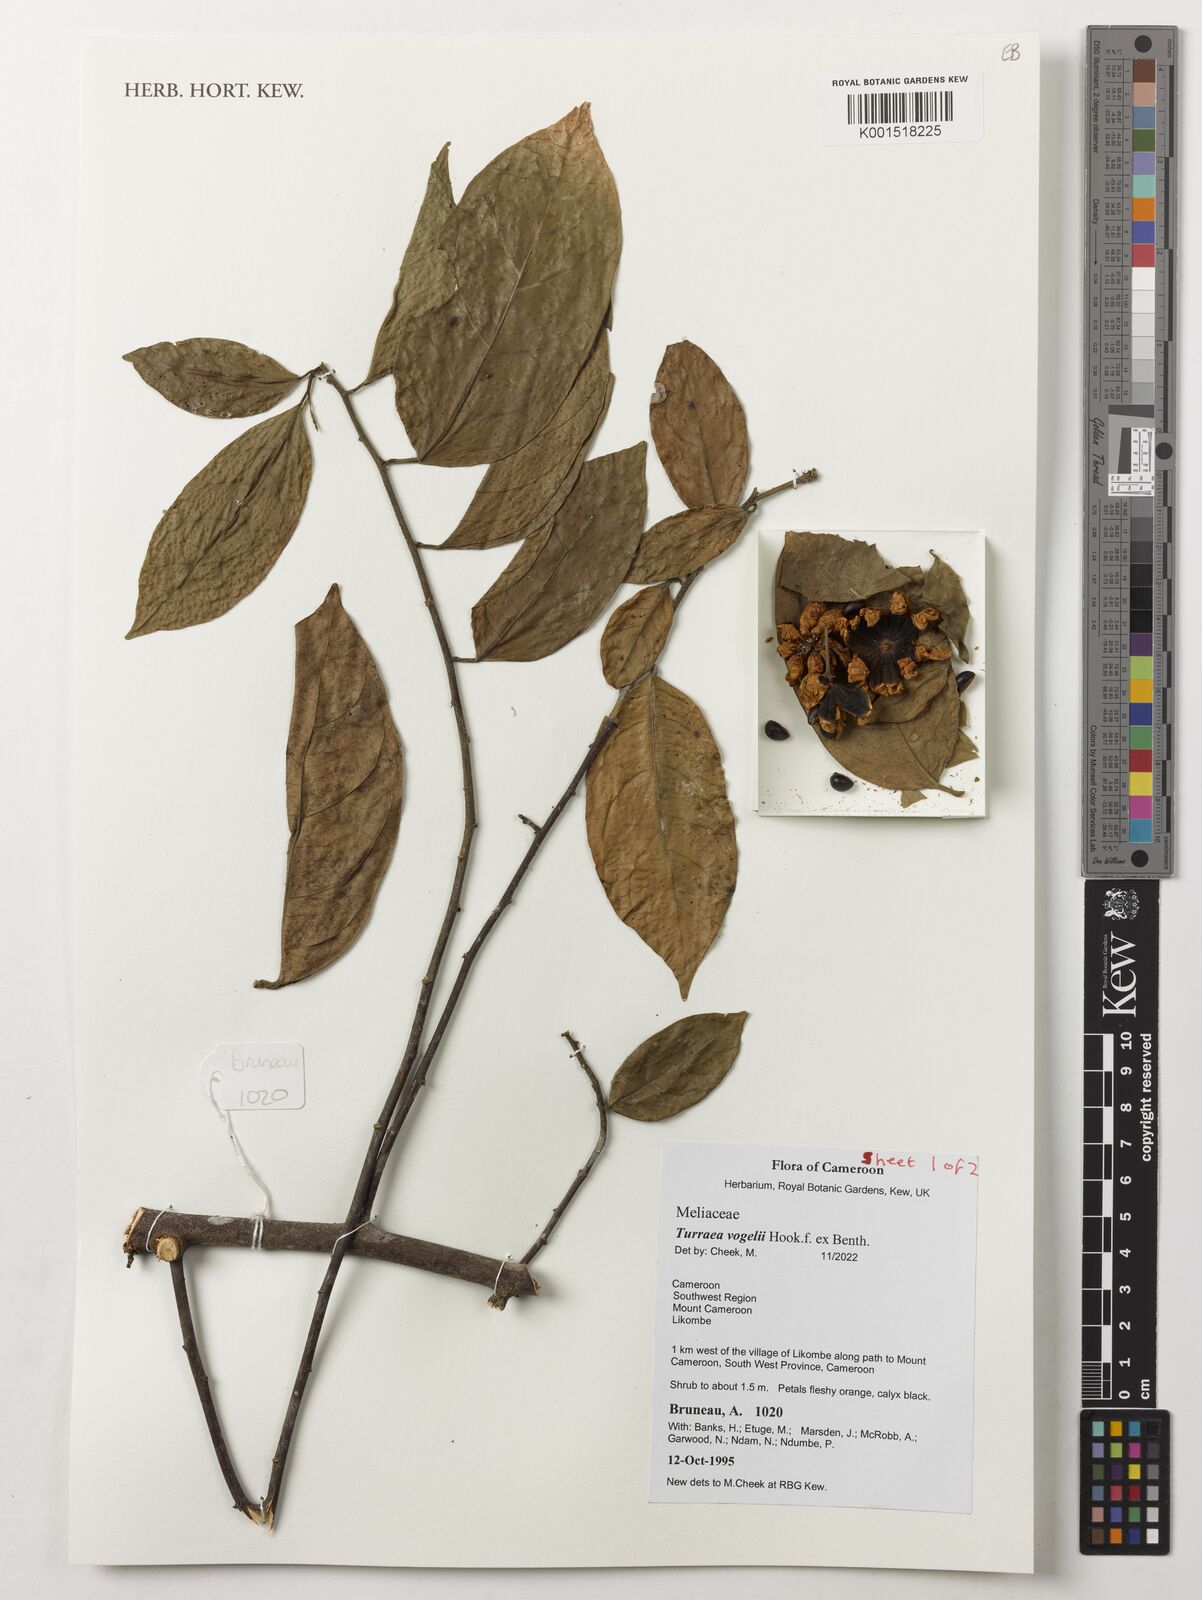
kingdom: Plantae
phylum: Tracheophyta
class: Magnoliopsida
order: Sapindales
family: Meliaceae
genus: Turraea
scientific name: Turraea vogelii
